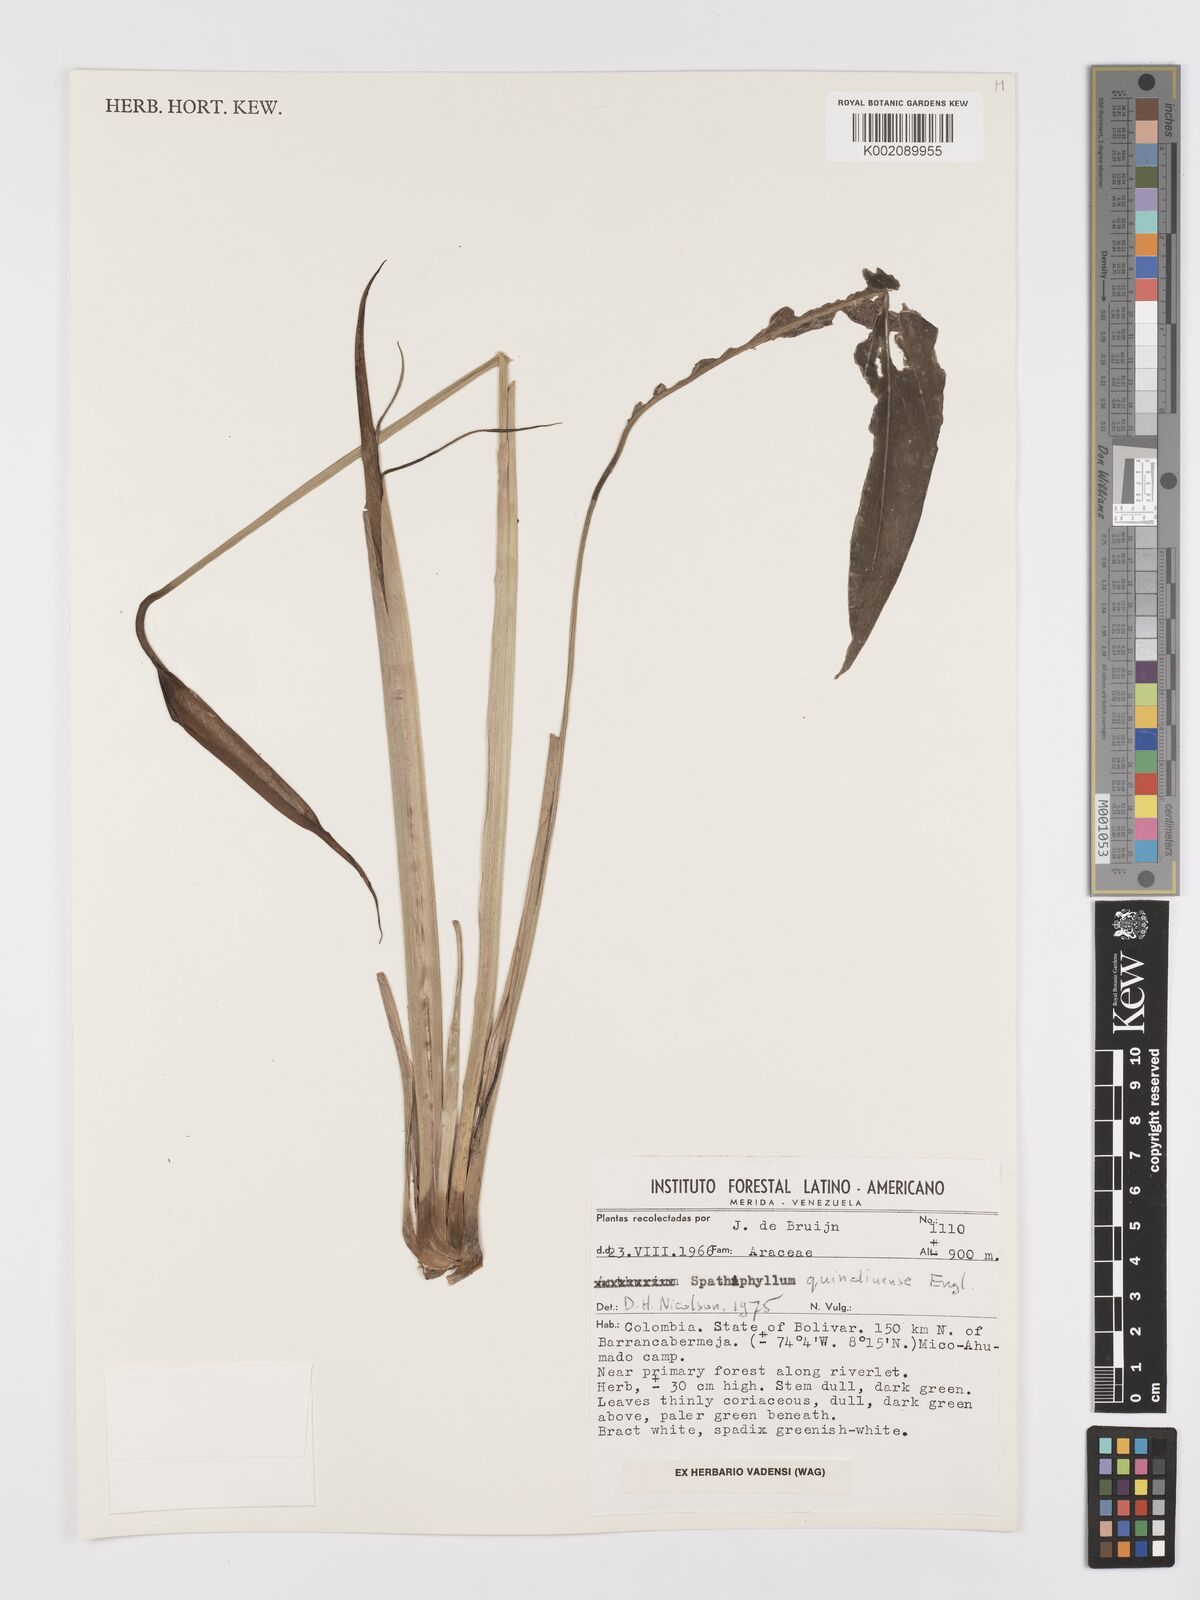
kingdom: Plantae
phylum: Tracheophyta
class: Liliopsida
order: Alismatales
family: Araceae
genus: Spathiphyllum
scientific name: Spathiphyllum quindiuense
